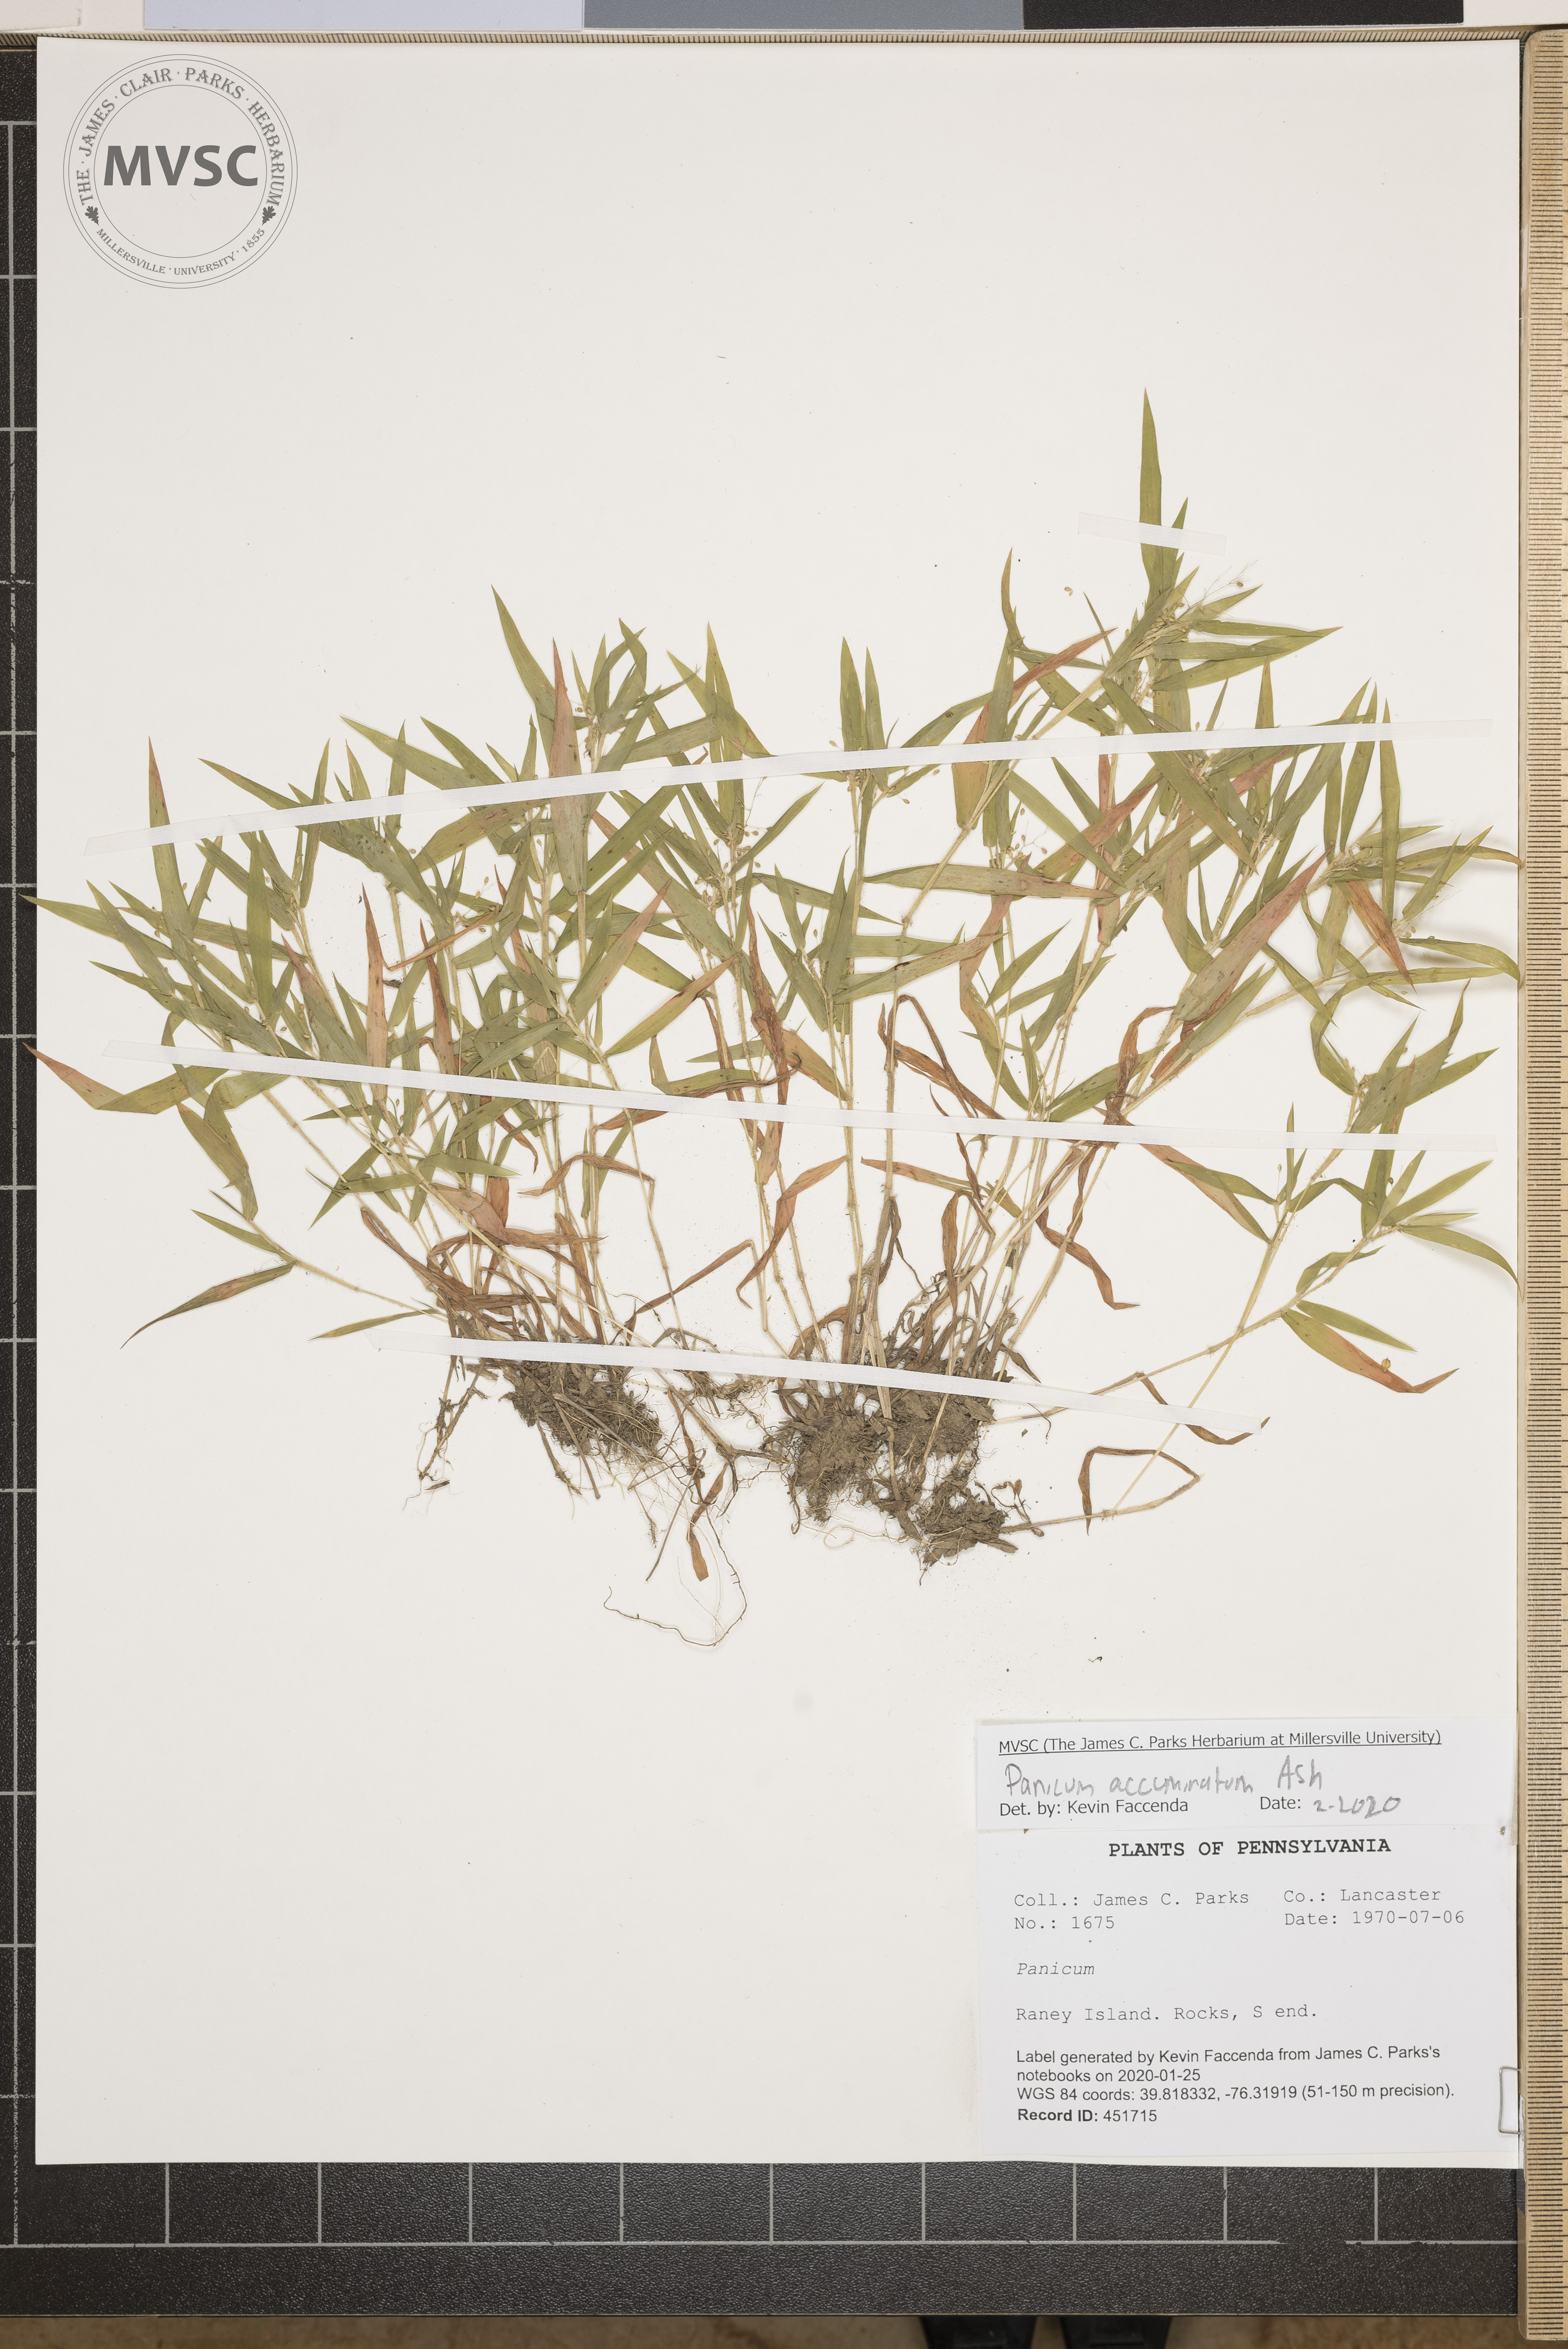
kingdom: Plantae
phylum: Tracheophyta
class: Liliopsida
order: Poales
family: Poaceae
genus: Panicum
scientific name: Panicum acuminatum
